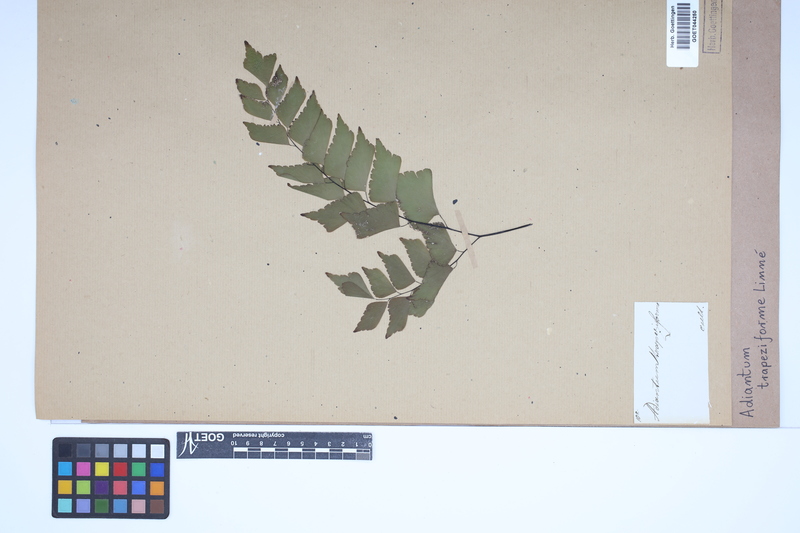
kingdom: Plantae
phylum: Tracheophyta
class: Polypodiopsida
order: Polypodiales
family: Pteridaceae
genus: Adiantum
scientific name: Adiantum trapeziforme
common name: Diamond maidenhair
